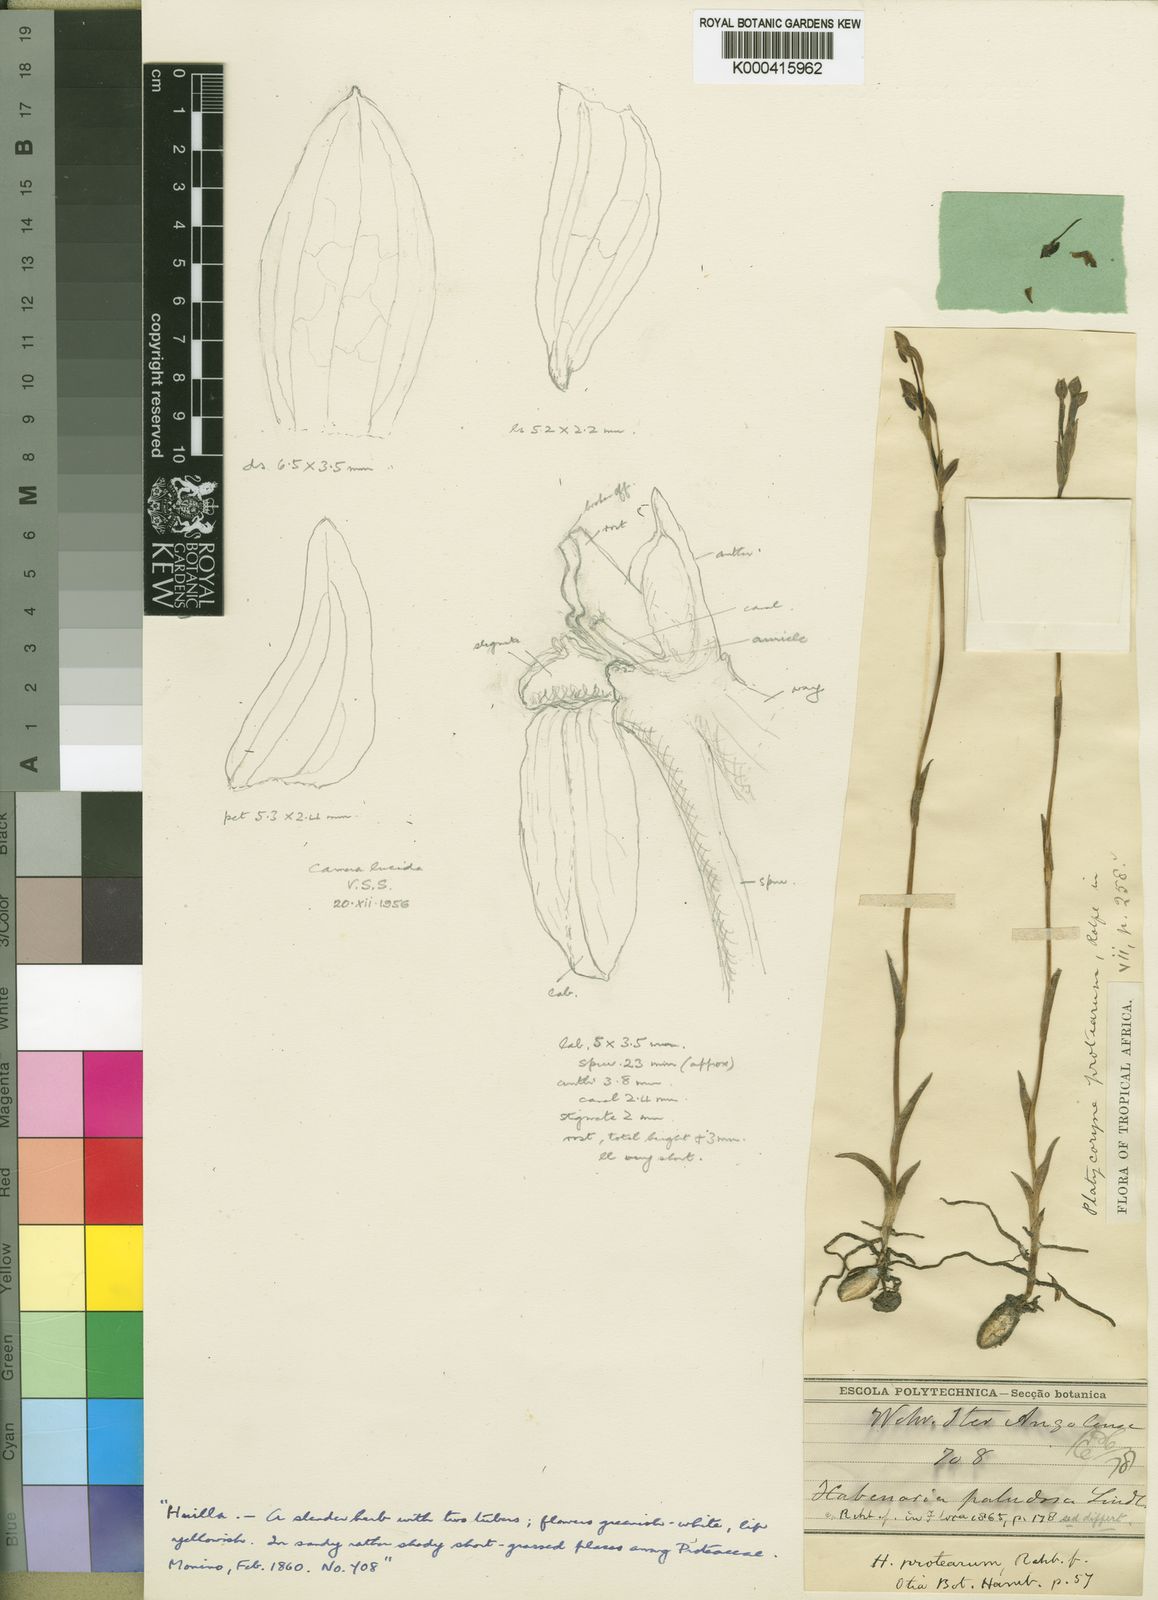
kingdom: Plantae
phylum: Tracheophyta
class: Liliopsida
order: Asparagales
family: Orchidaceae
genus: Platycoryne
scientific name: Platycoryne protearum
